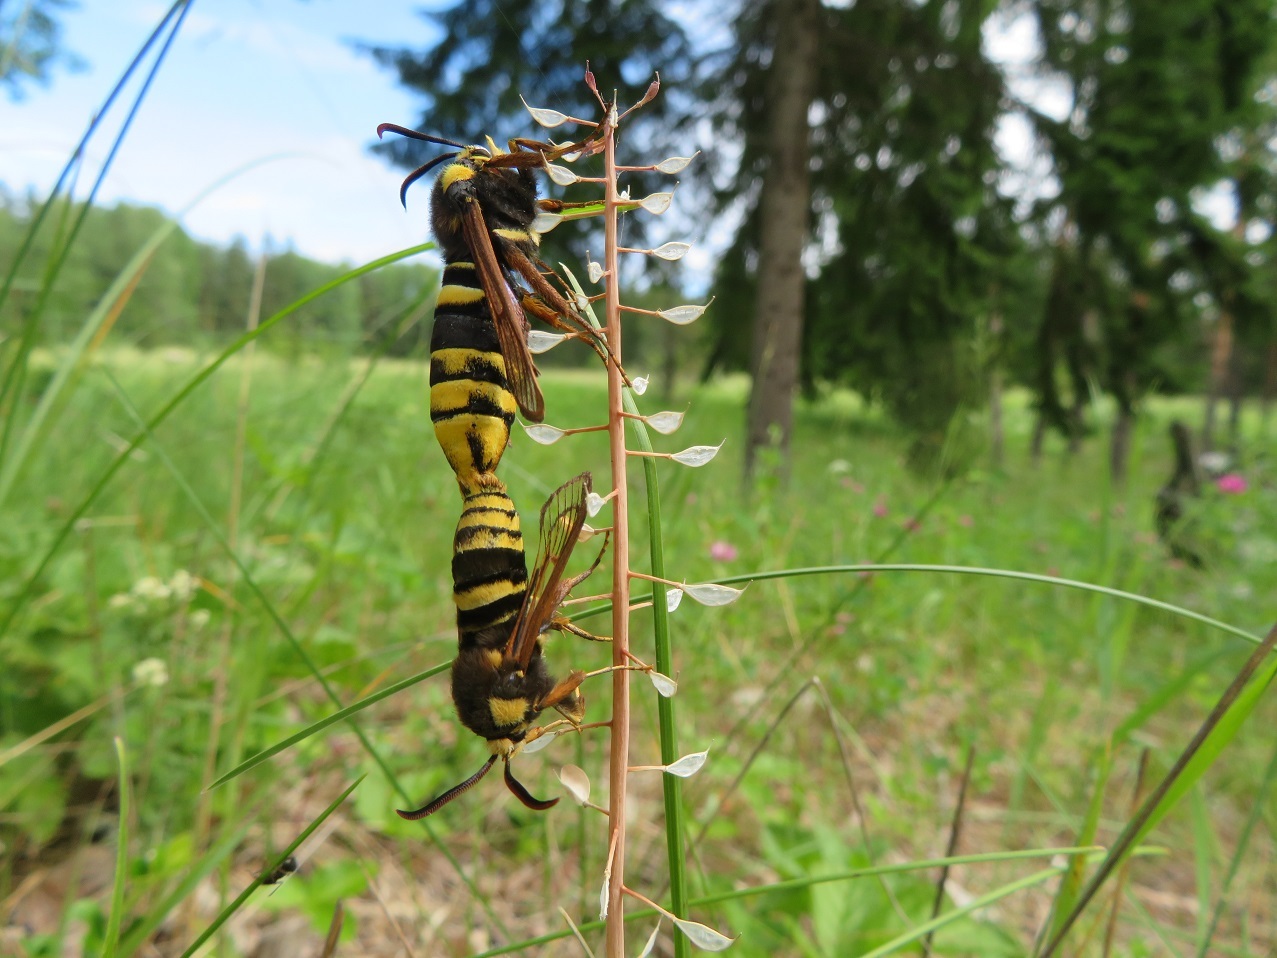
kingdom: Animalia
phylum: Arthropoda
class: Insecta
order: Lepidoptera
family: Sesiidae
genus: Sesia
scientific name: Sesia apiformis
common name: Hornet moth
